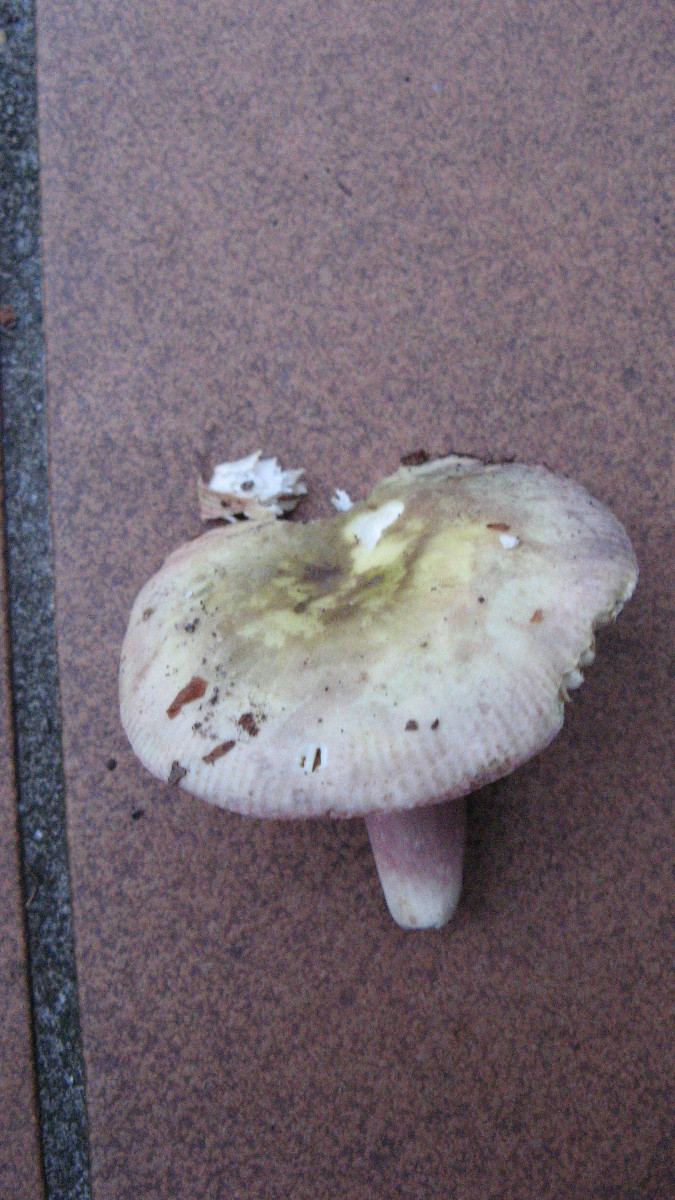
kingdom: Fungi
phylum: Basidiomycota
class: Agaricomycetes
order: Russulales
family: Russulaceae
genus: Russula
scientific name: Russula violeipes
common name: ferskengul skørhat
